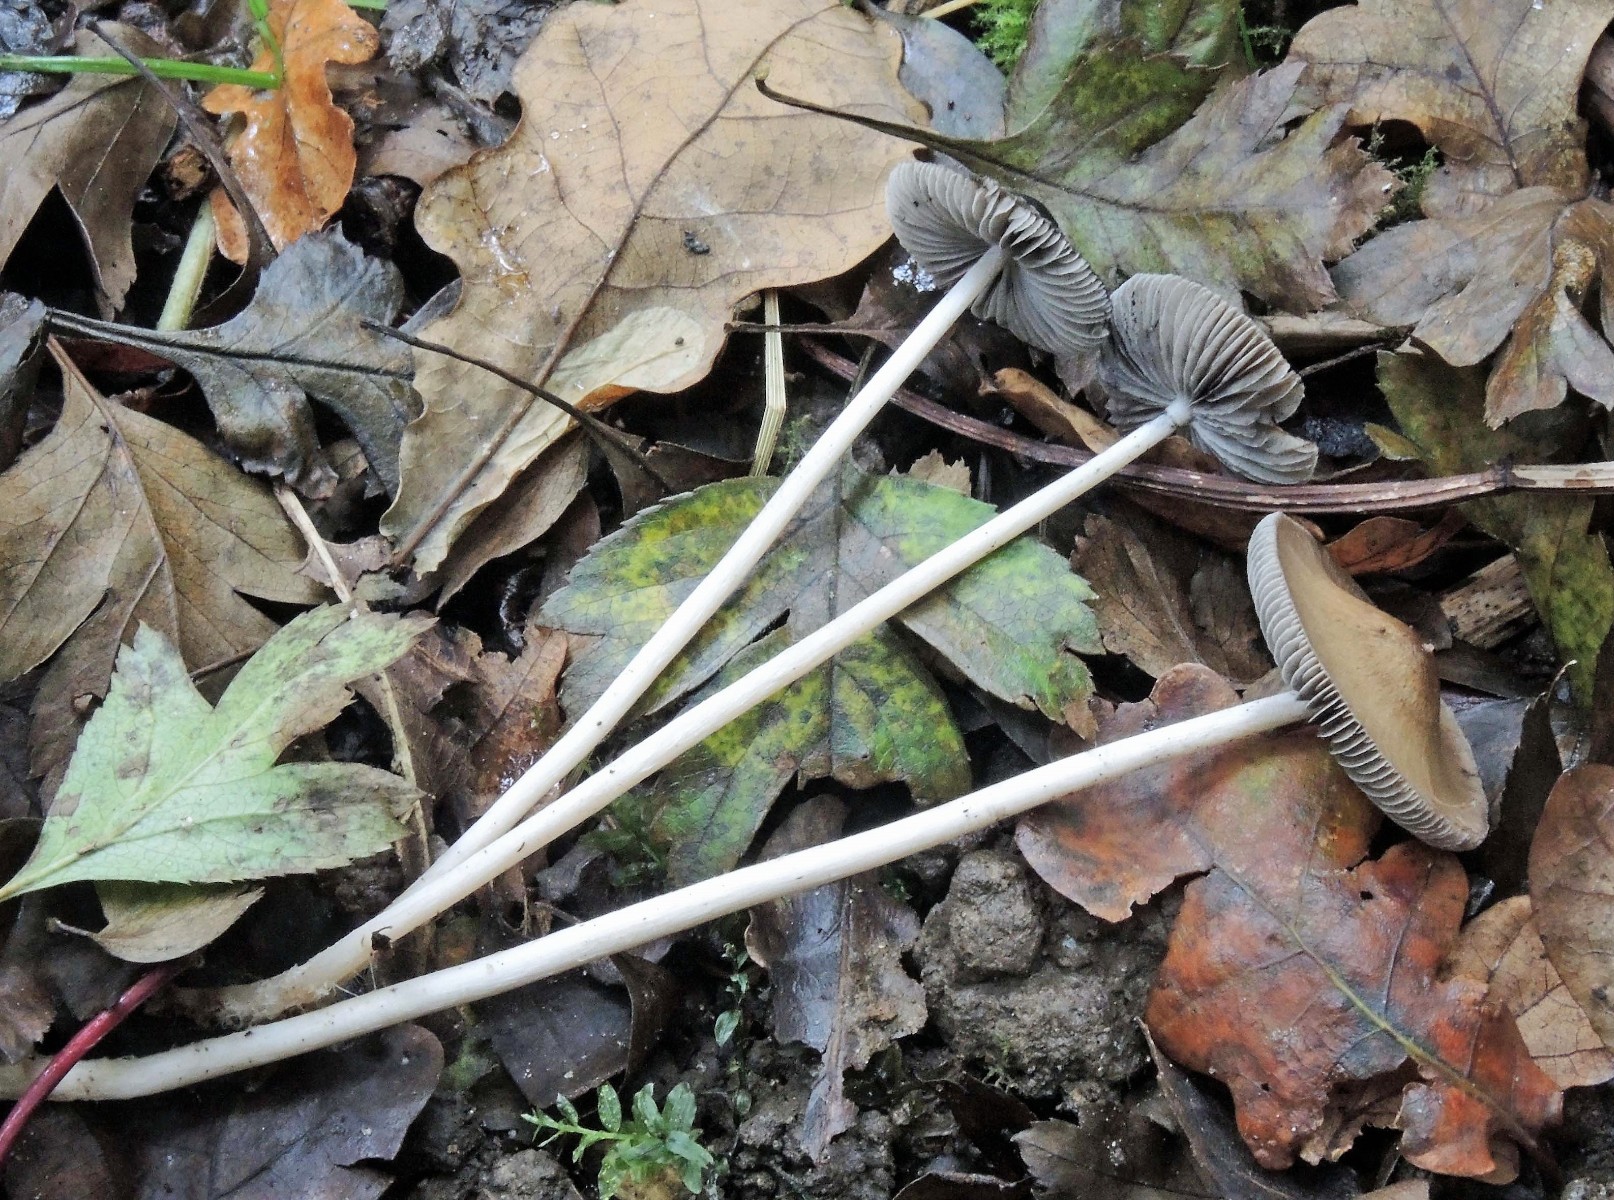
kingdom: Fungi
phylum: Basidiomycota
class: Agaricomycetes
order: Agaricales
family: Psathyrellaceae
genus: Psathyrella
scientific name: Psathyrella longicauda
